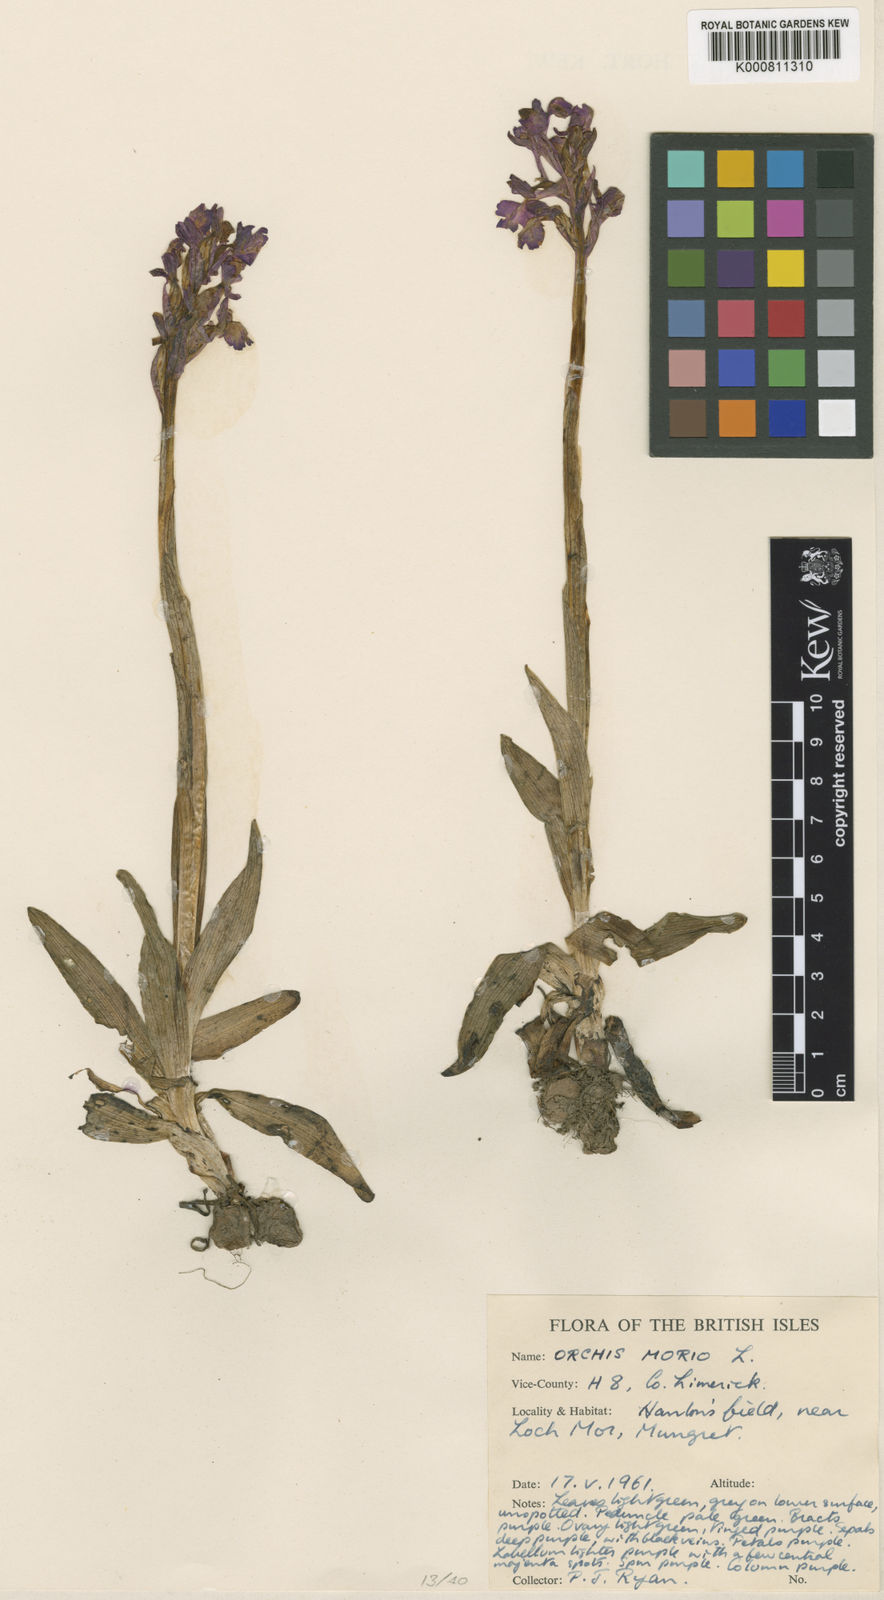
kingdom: Plantae
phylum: Tracheophyta
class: Liliopsida
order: Asparagales
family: Orchidaceae
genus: Anacamptis
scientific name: Anacamptis morio
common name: Green-winged orchid
